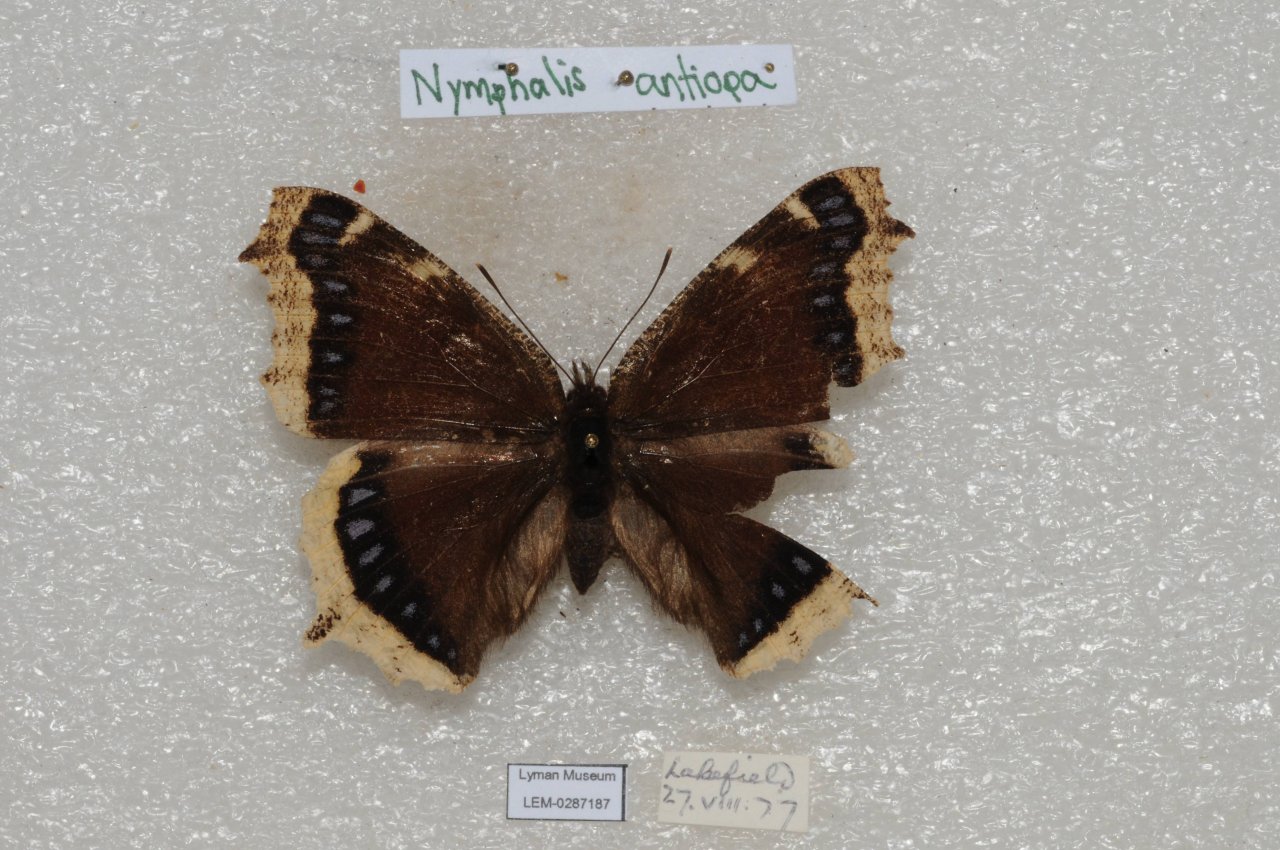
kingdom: Animalia
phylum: Arthropoda
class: Insecta
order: Lepidoptera
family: Nymphalidae
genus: Nymphalis
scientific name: Nymphalis antiopa
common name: Mourning Cloak
